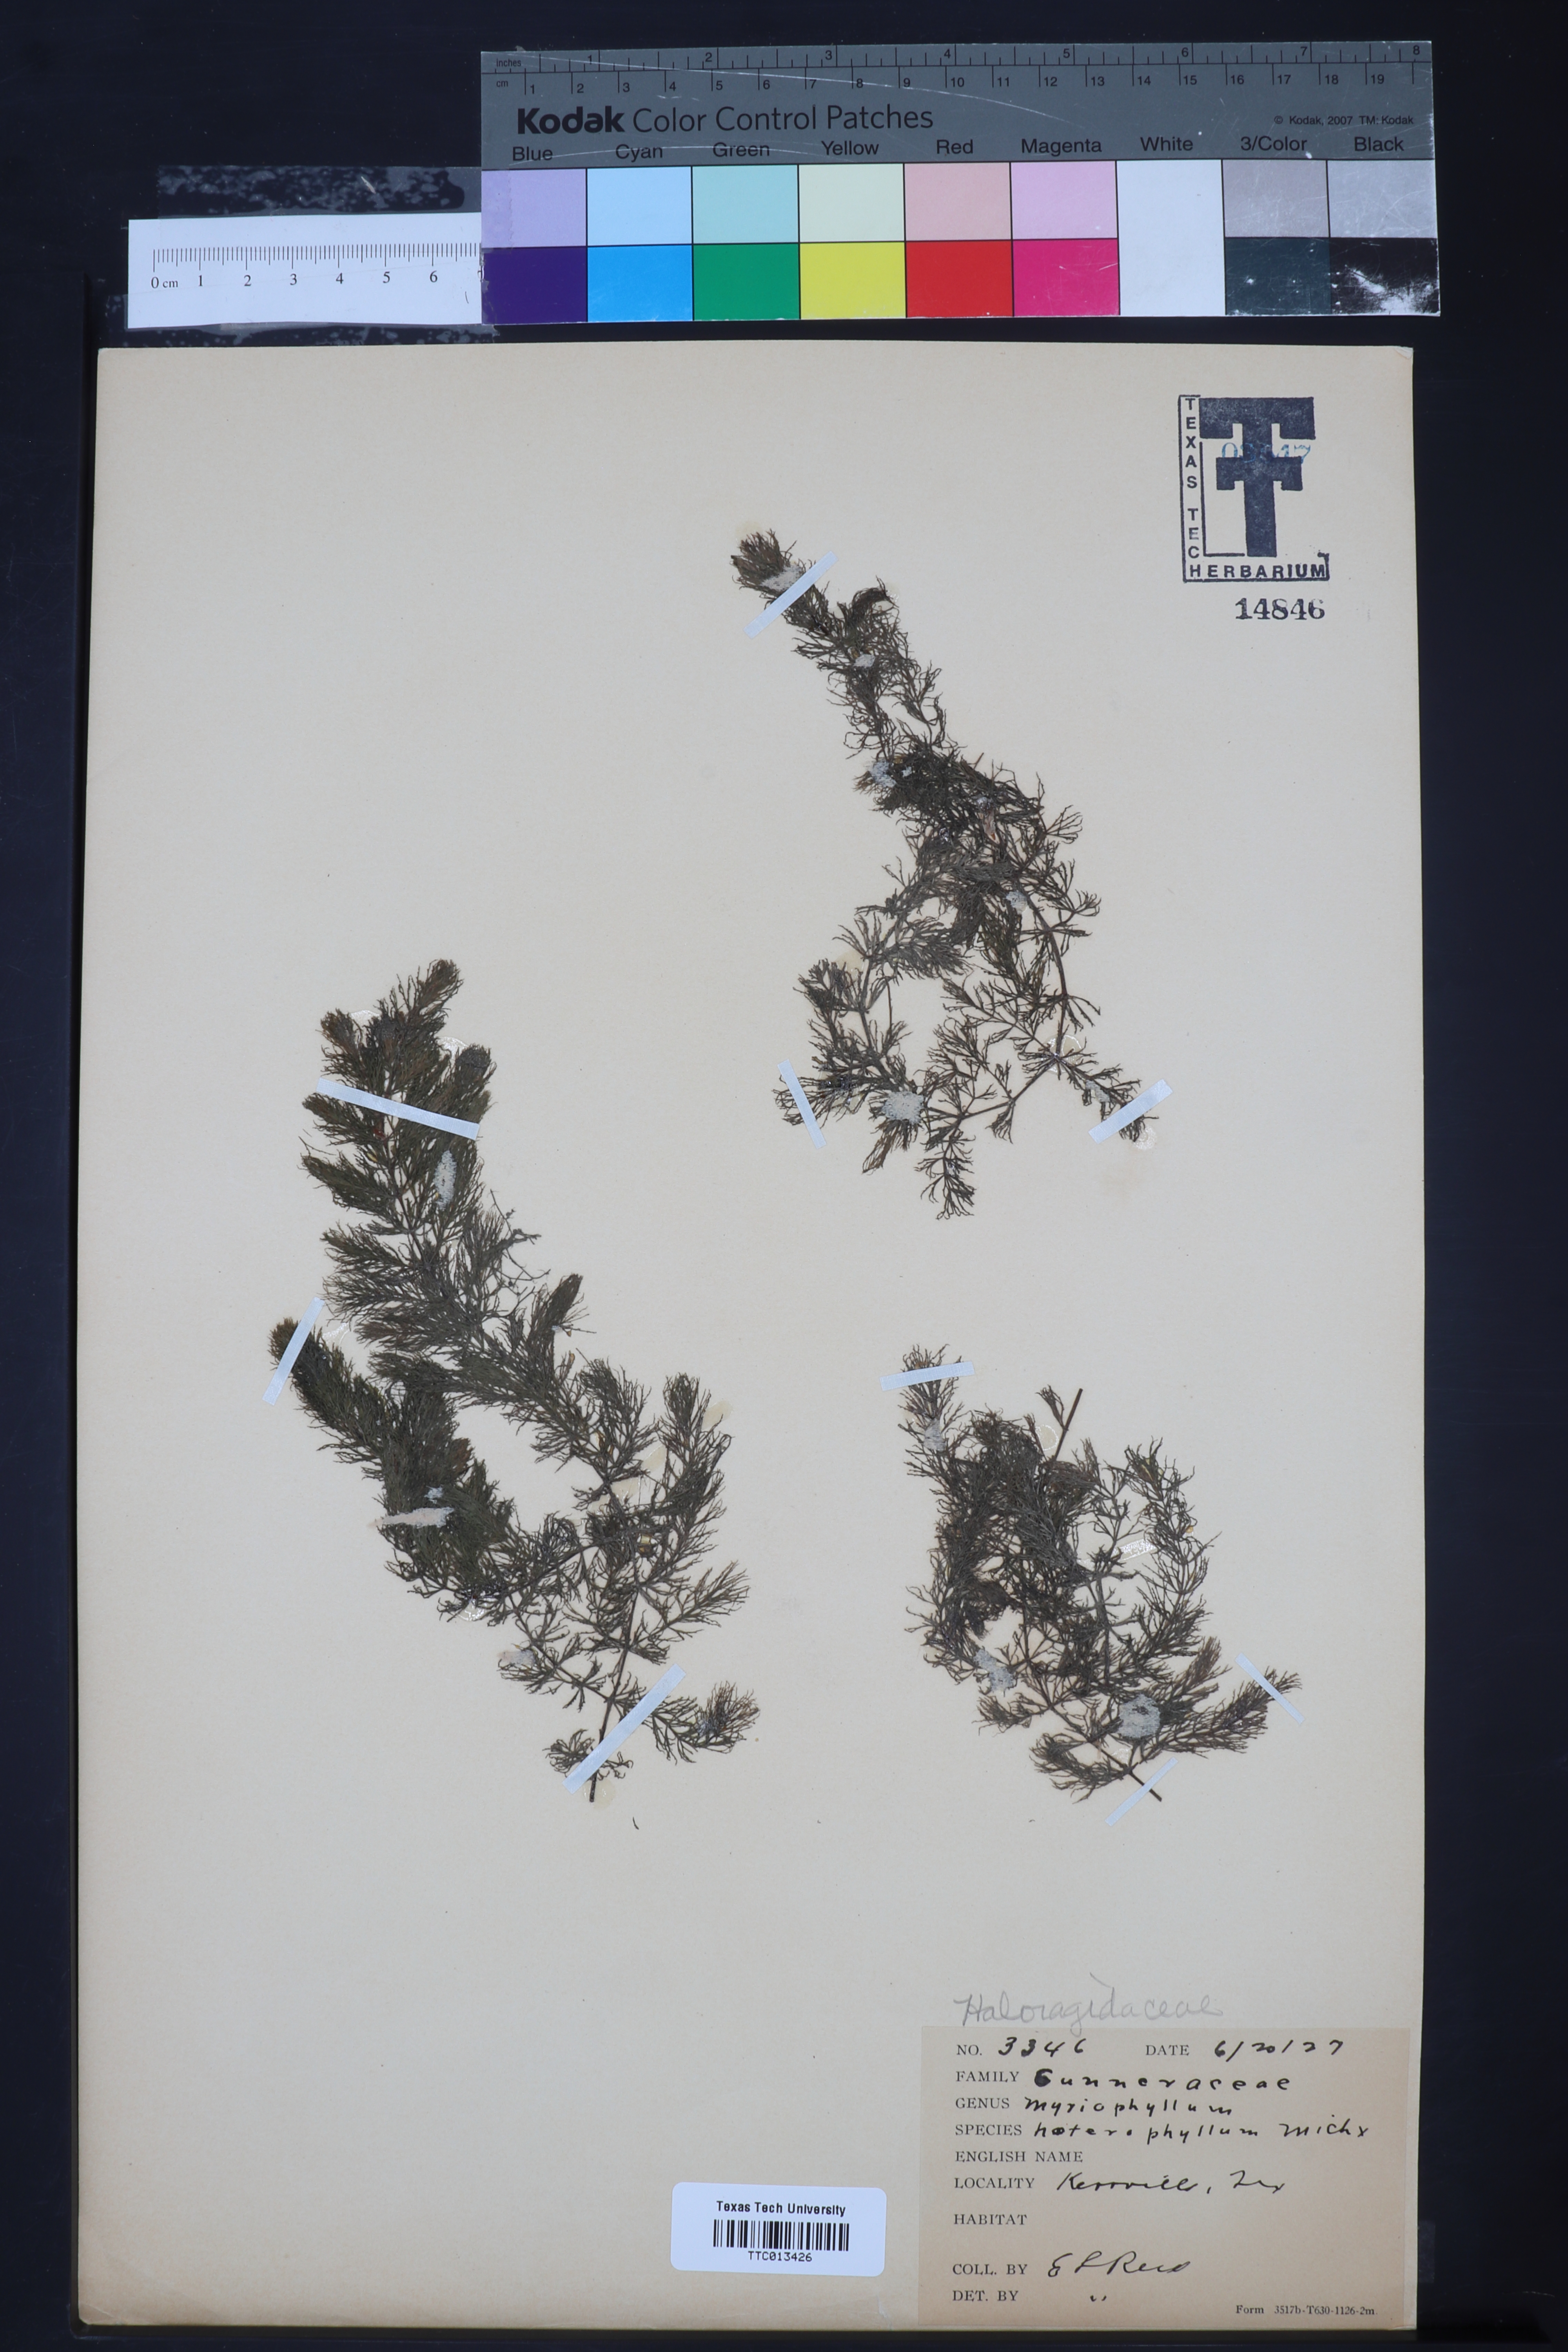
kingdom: Plantae
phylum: Tracheophyta
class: Magnoliopsida
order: Saxifragales
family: Haloragaceae
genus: Myriophyllum
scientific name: Myriophyllum heterophyllum
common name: Variable watermilfoil
